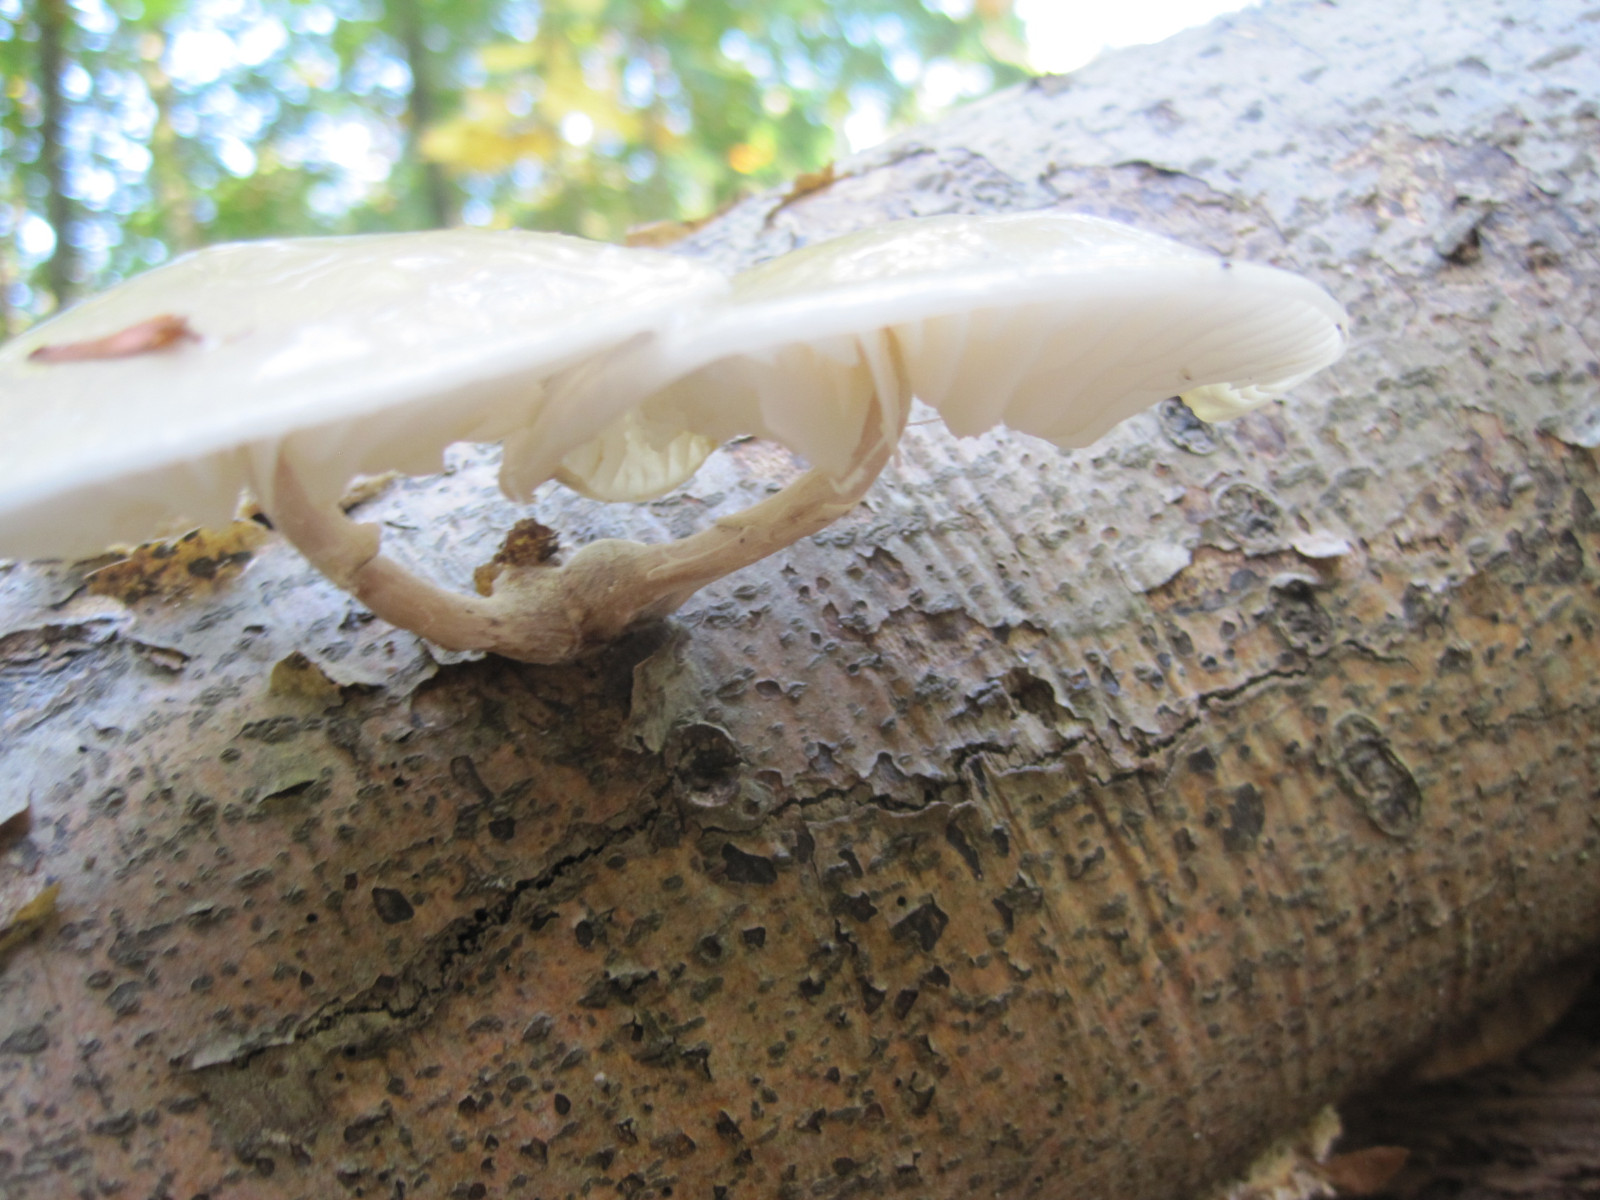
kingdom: Fungi
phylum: Basidiomycota
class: Agaricomycetes
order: Agaricales
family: Physalacriaceae
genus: Mucidula
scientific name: Mucidula mucida
